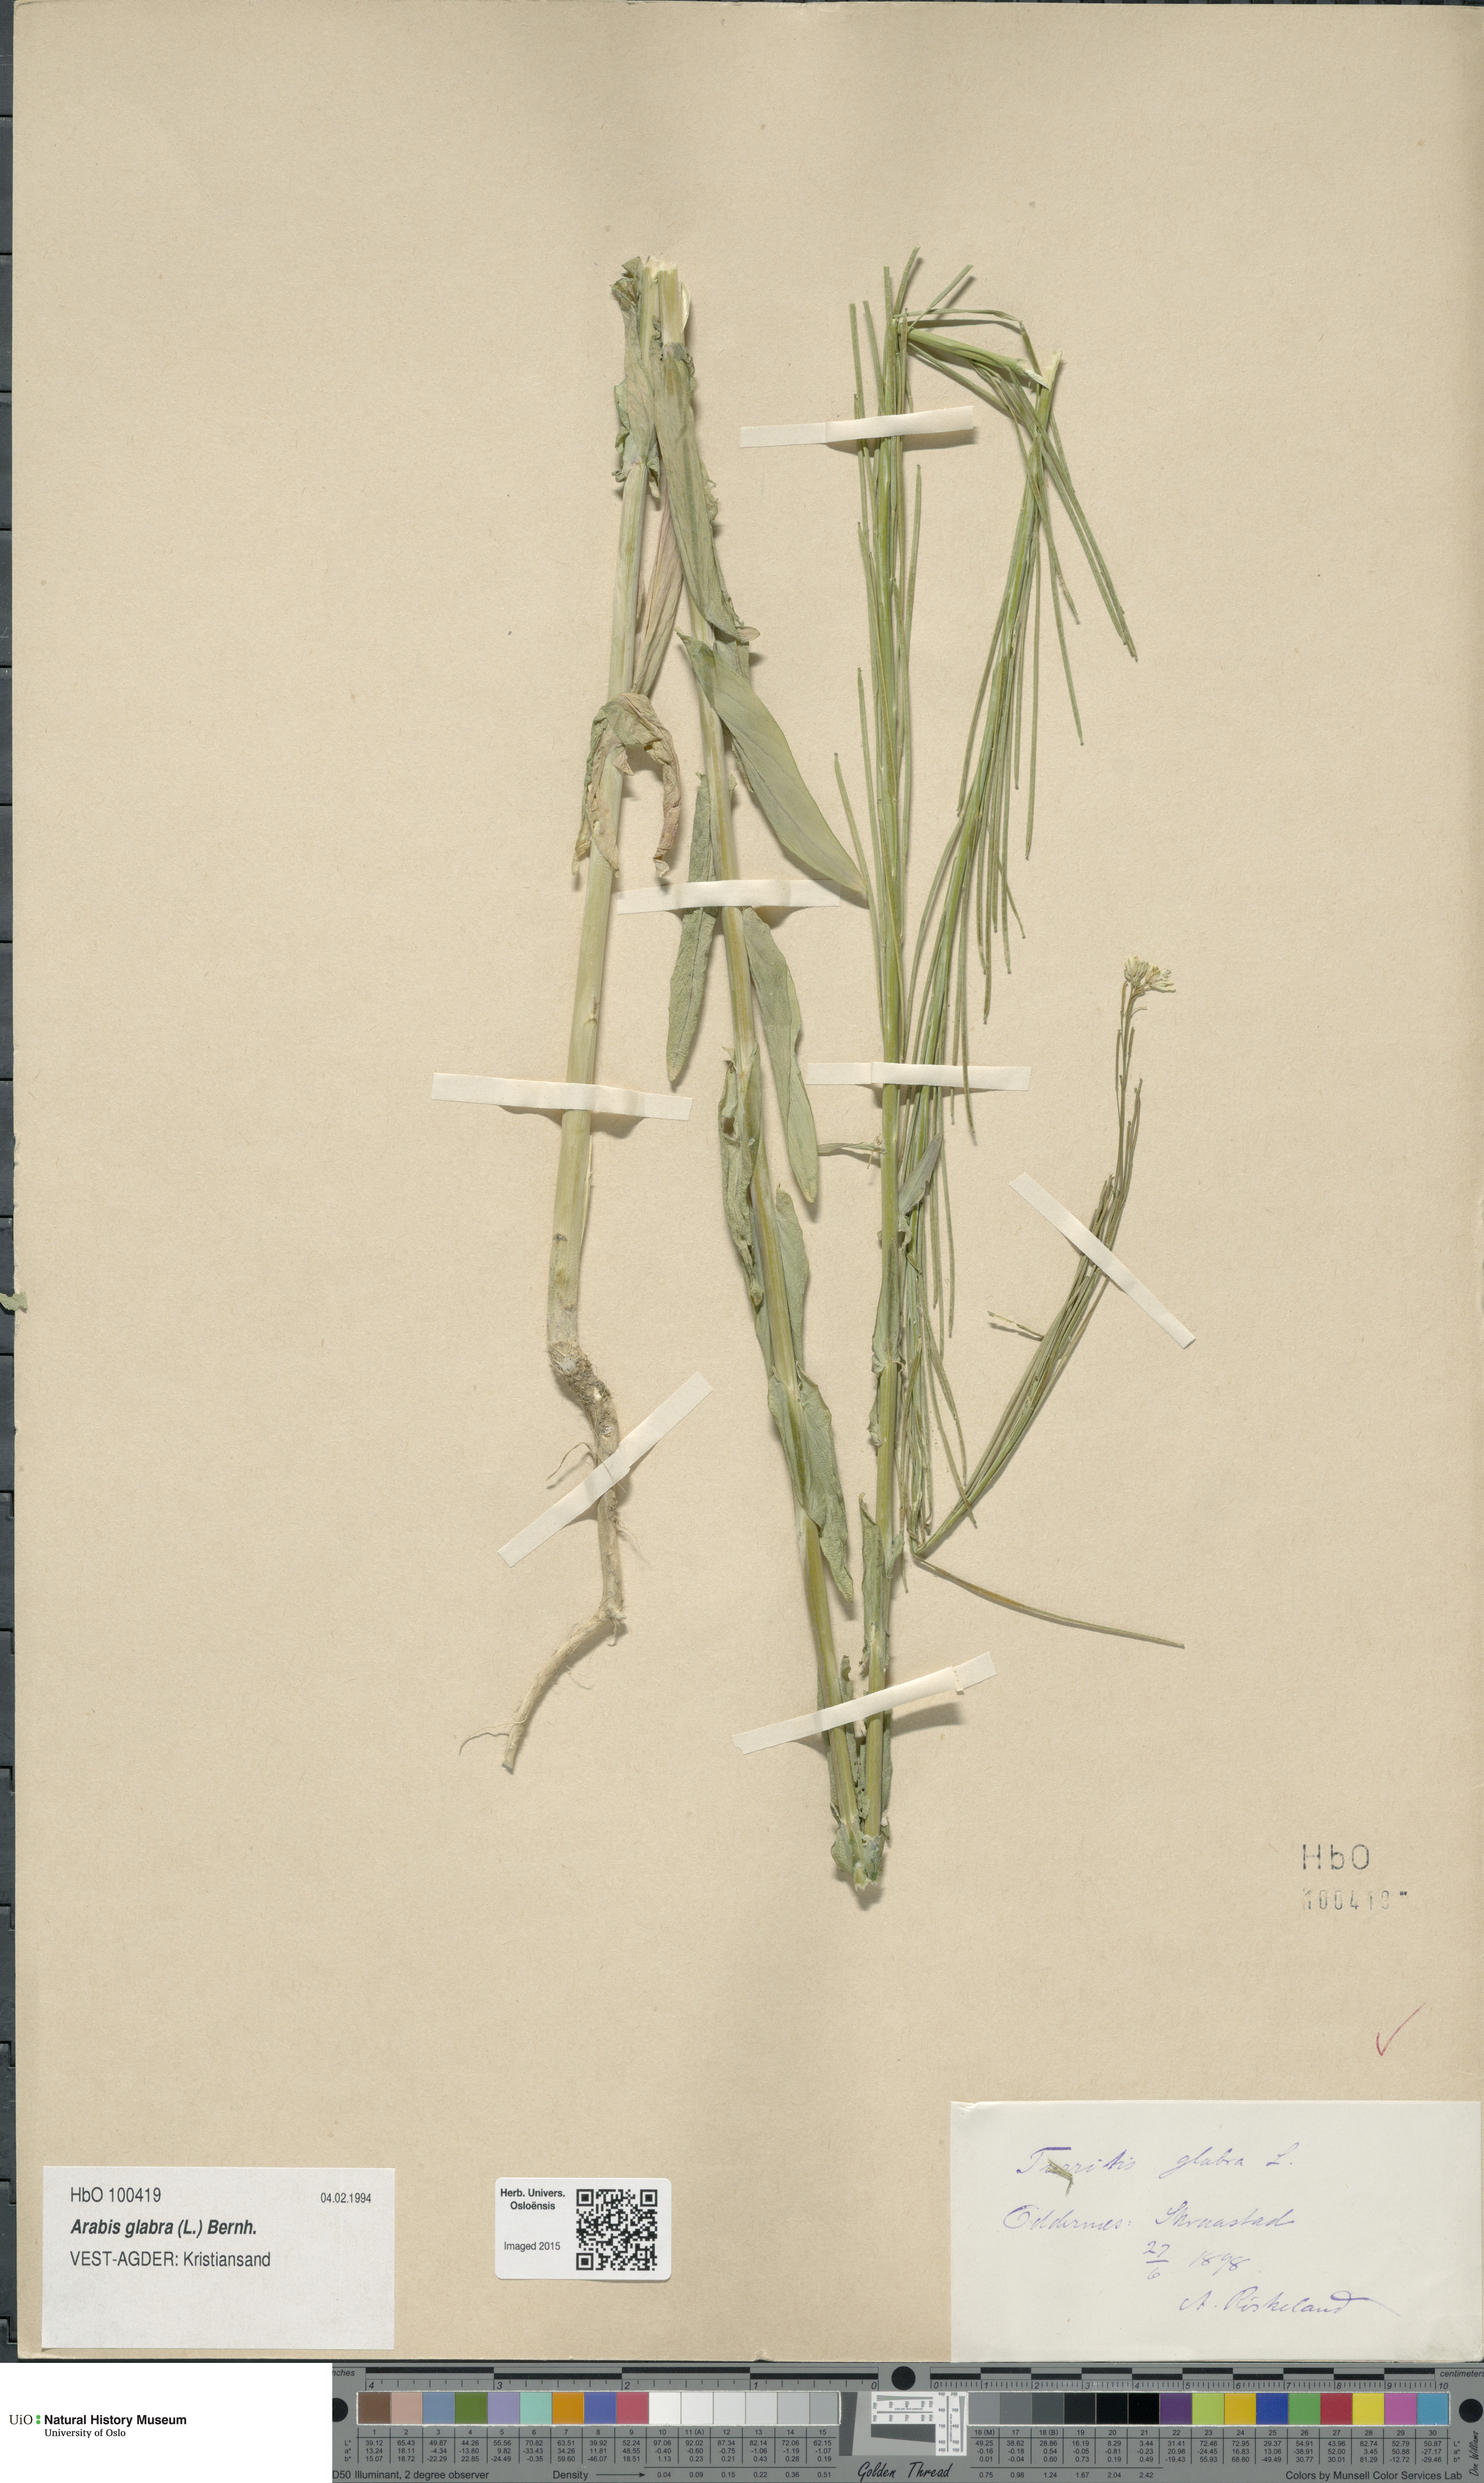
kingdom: Plantae
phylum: Tracheophyta
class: Magnoliopsida
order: Brassicales
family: Brassicaceae
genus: Turritis
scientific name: Turritis glabra
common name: Tower rockcress
